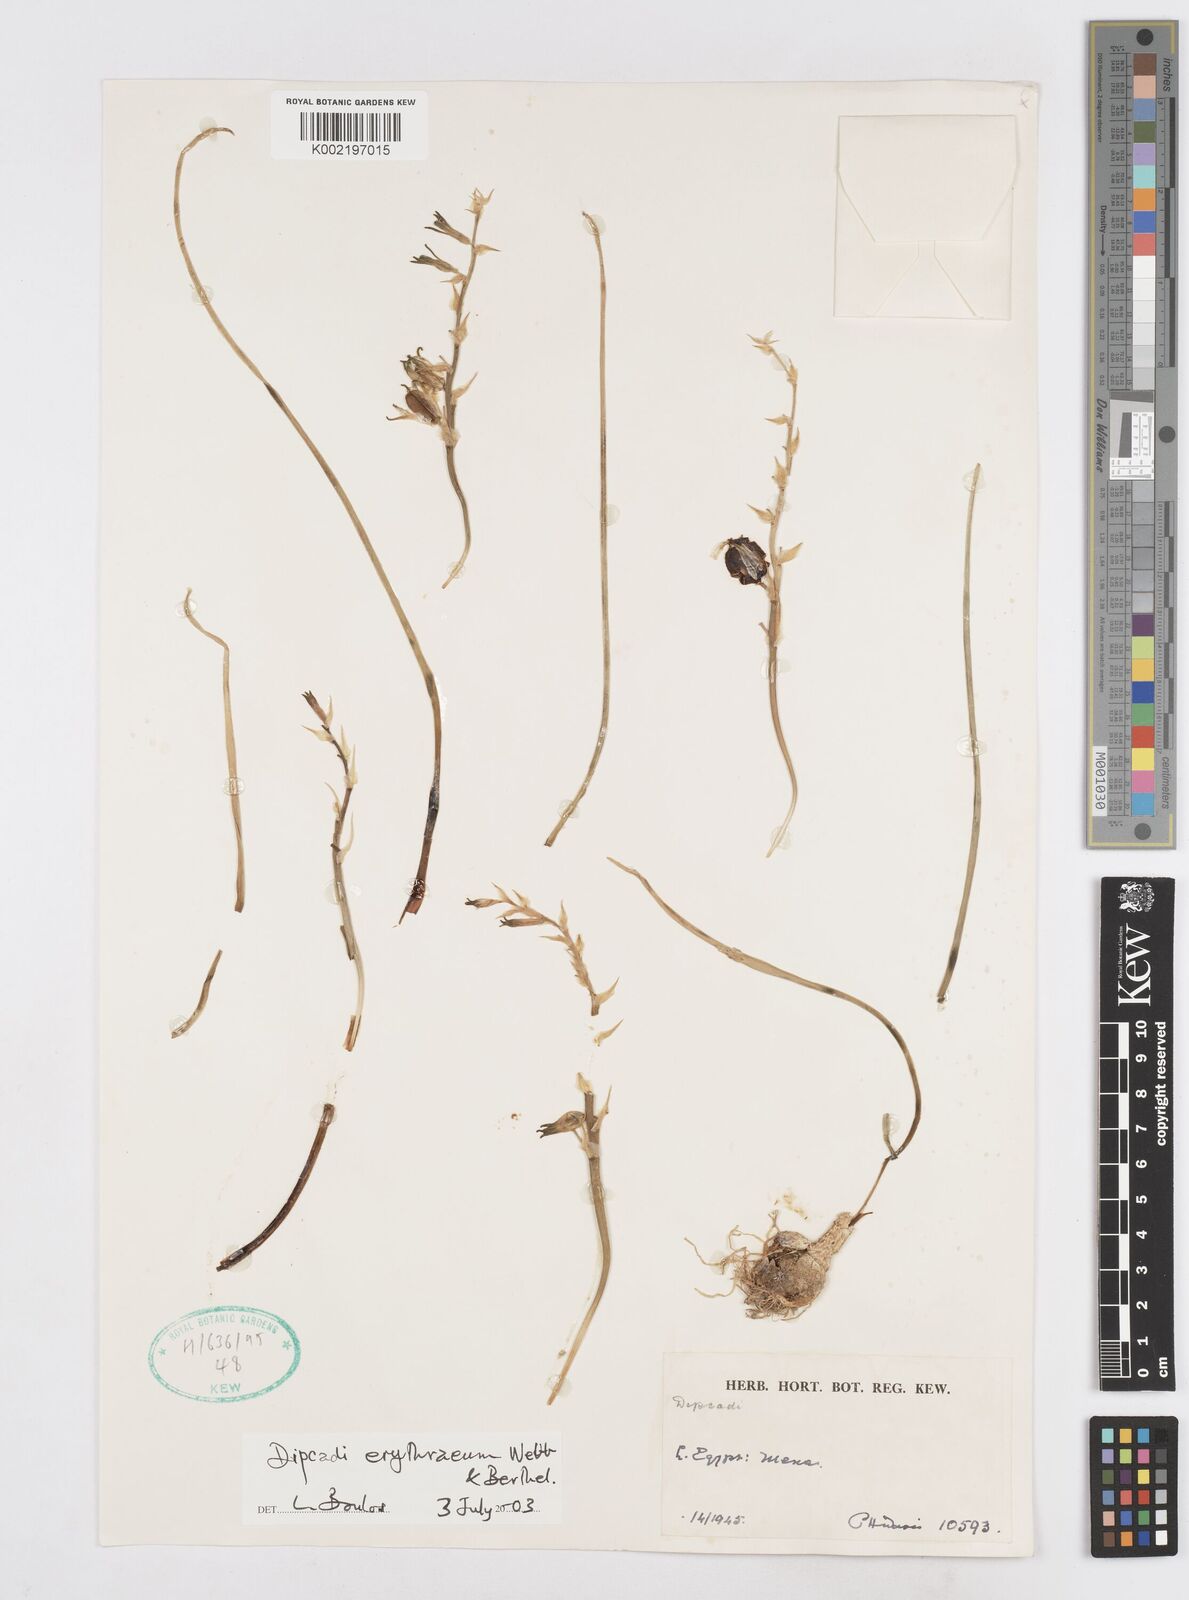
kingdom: Plantae
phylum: Tracheophyta
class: Liliopsida
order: Asparagales
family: Asparagaceae
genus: Dipcadi
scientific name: Dipcadi erythraeum
